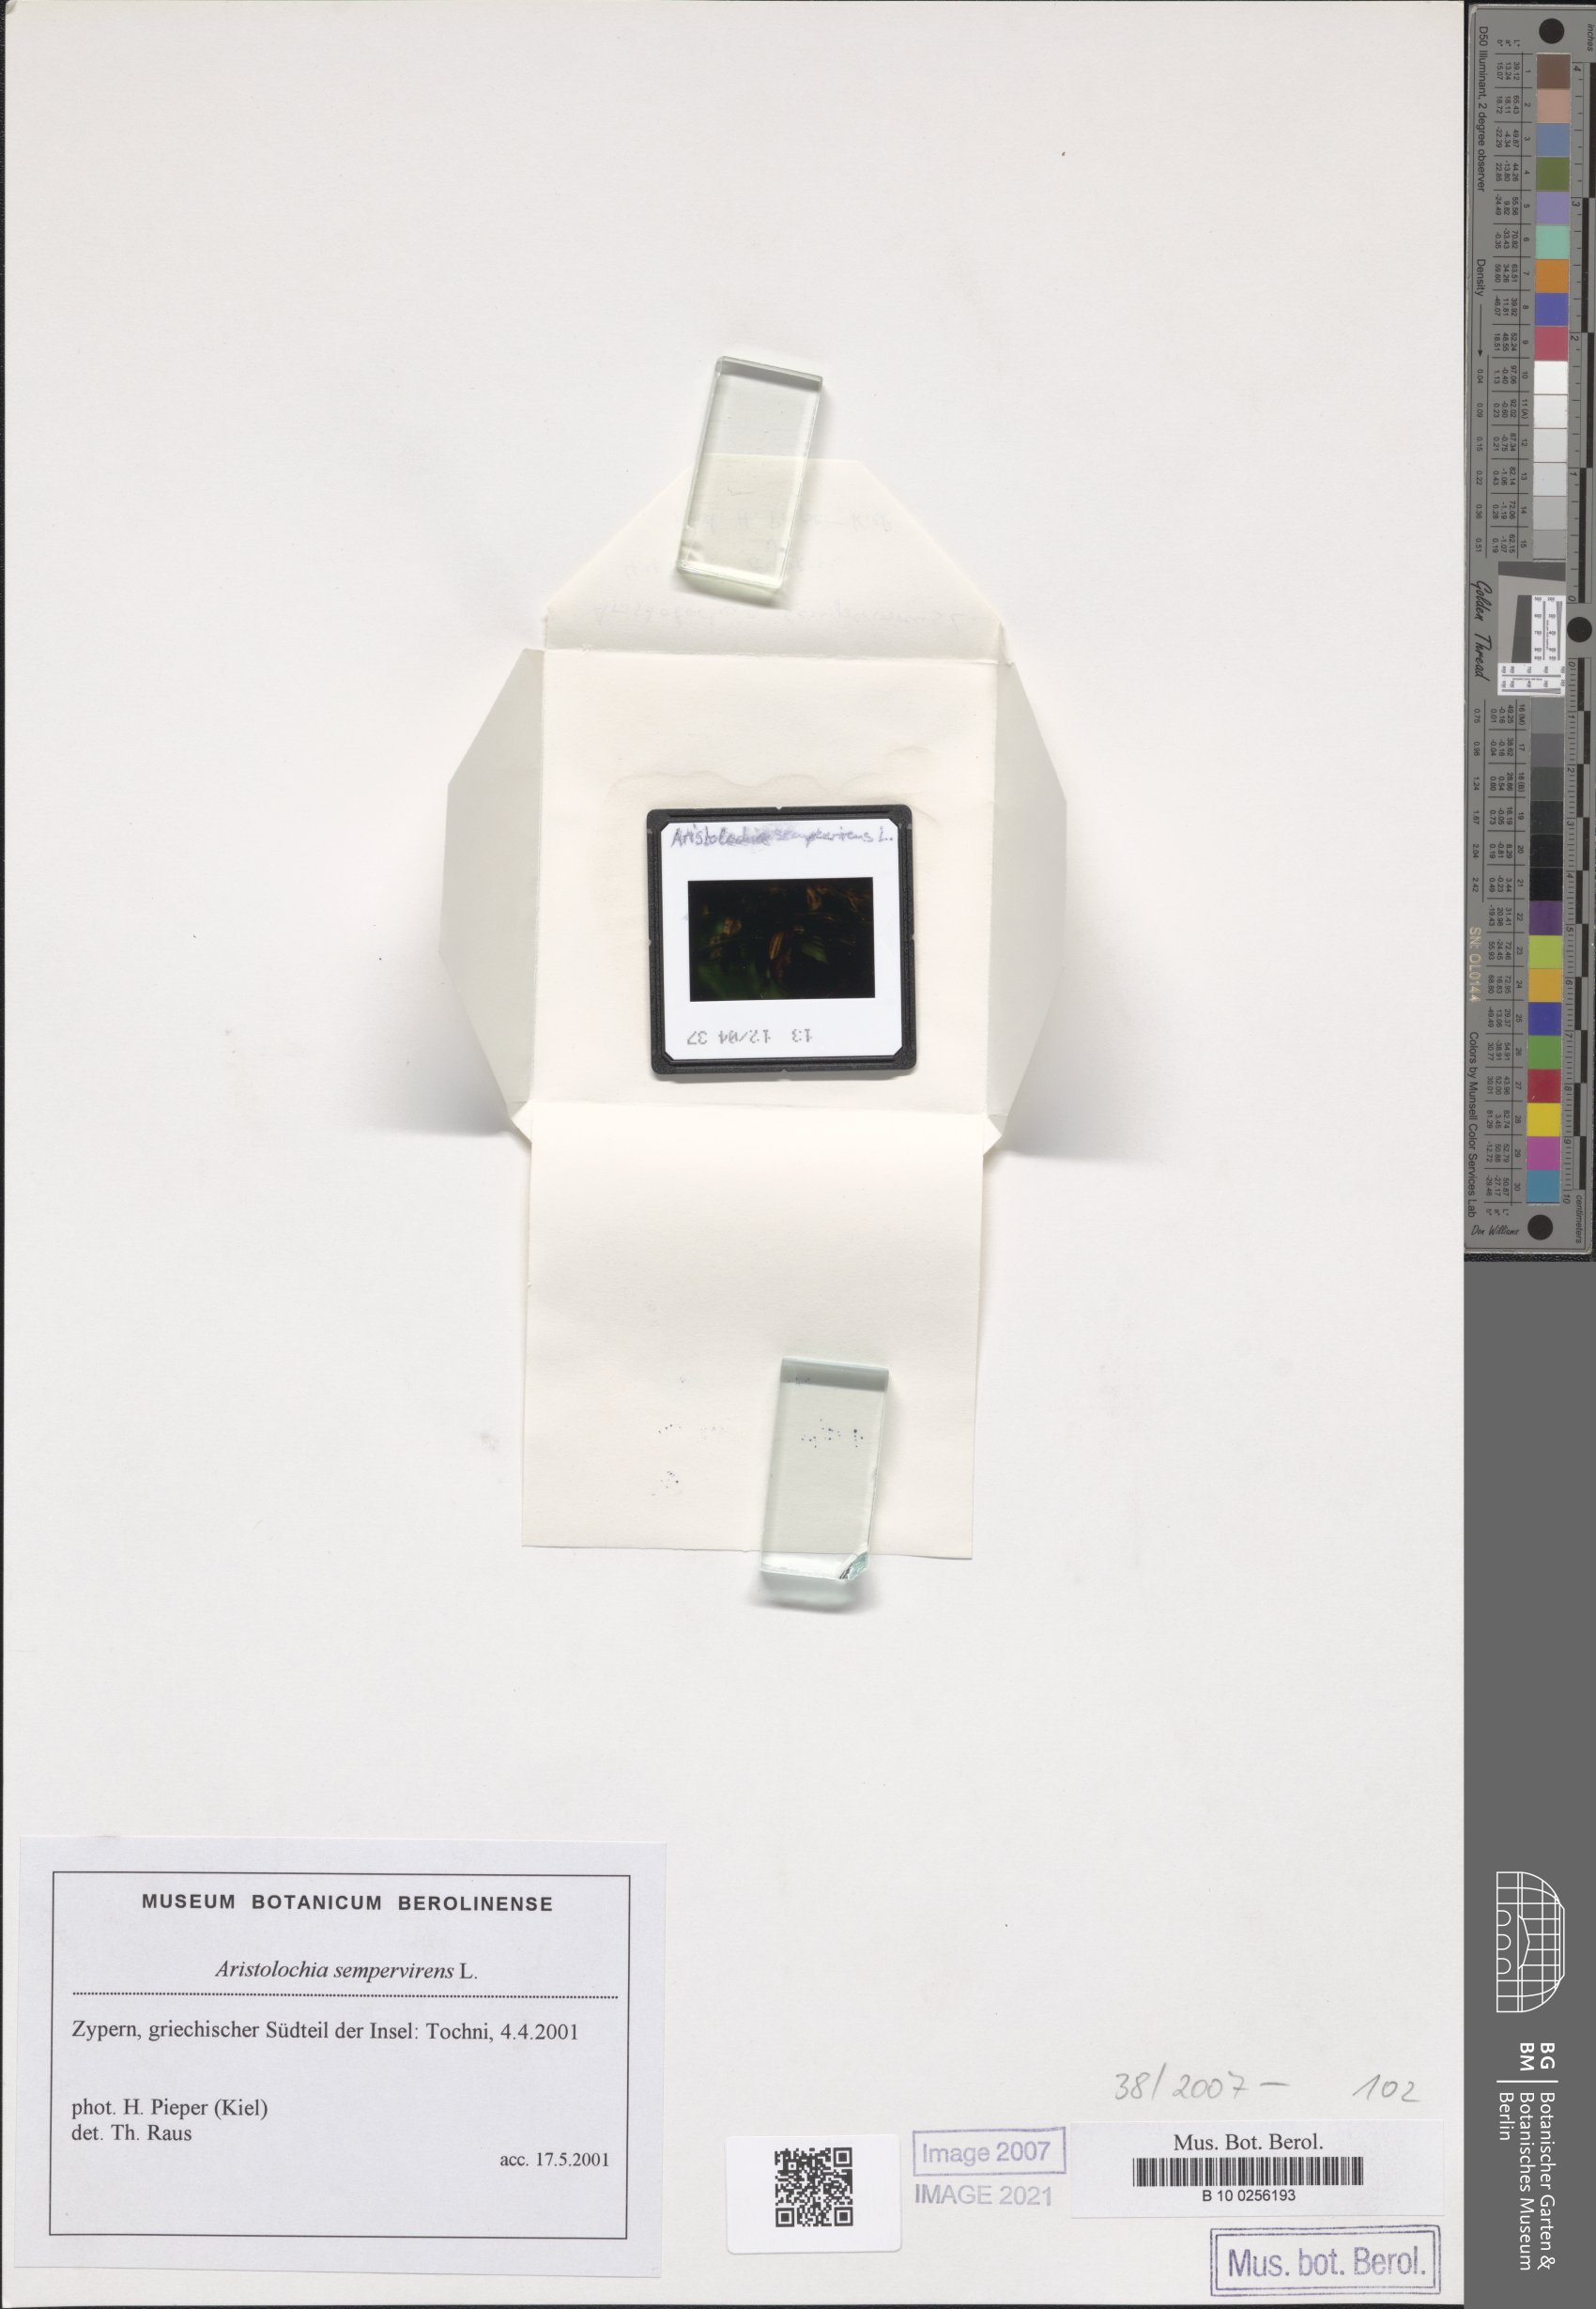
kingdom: Plantae
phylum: Tracheophyta
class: Magnoliopsida
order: Piperales
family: Aristolochiaceae
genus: Aristolochia
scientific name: Aristolochia sempervirens
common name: Long birthwort
